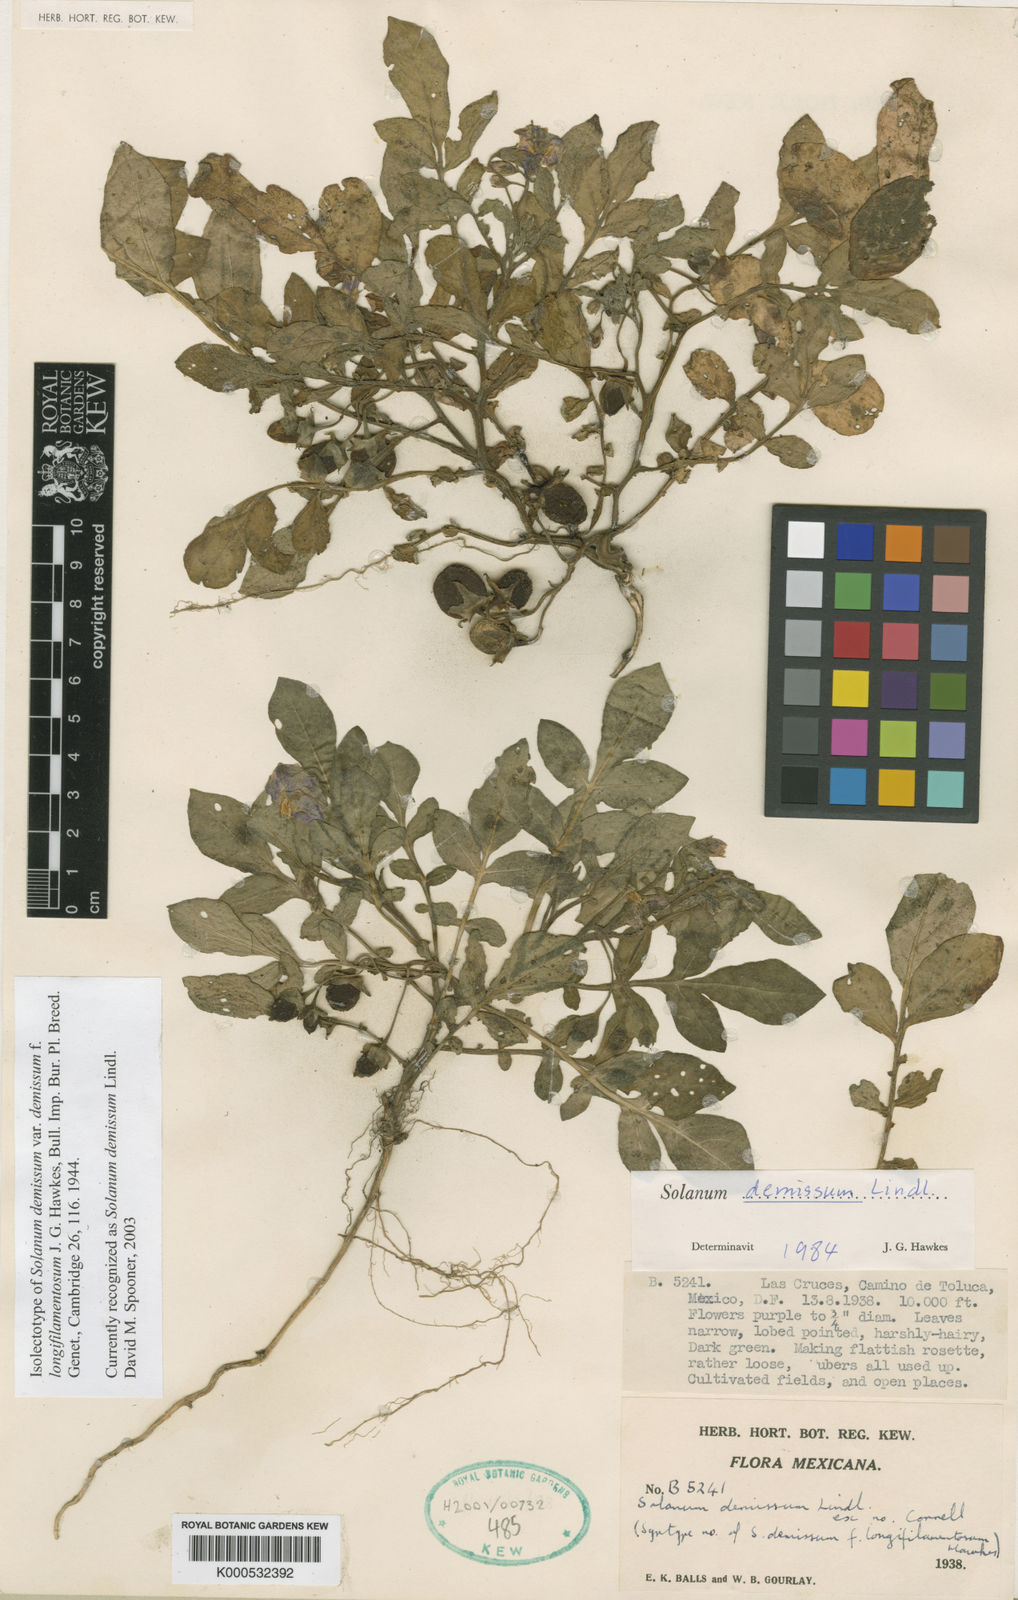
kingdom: Plantae
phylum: Tracheophyta
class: Magnoliopsida
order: Solanales
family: Solanaceae
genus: Solanum
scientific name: Solanum demissum
